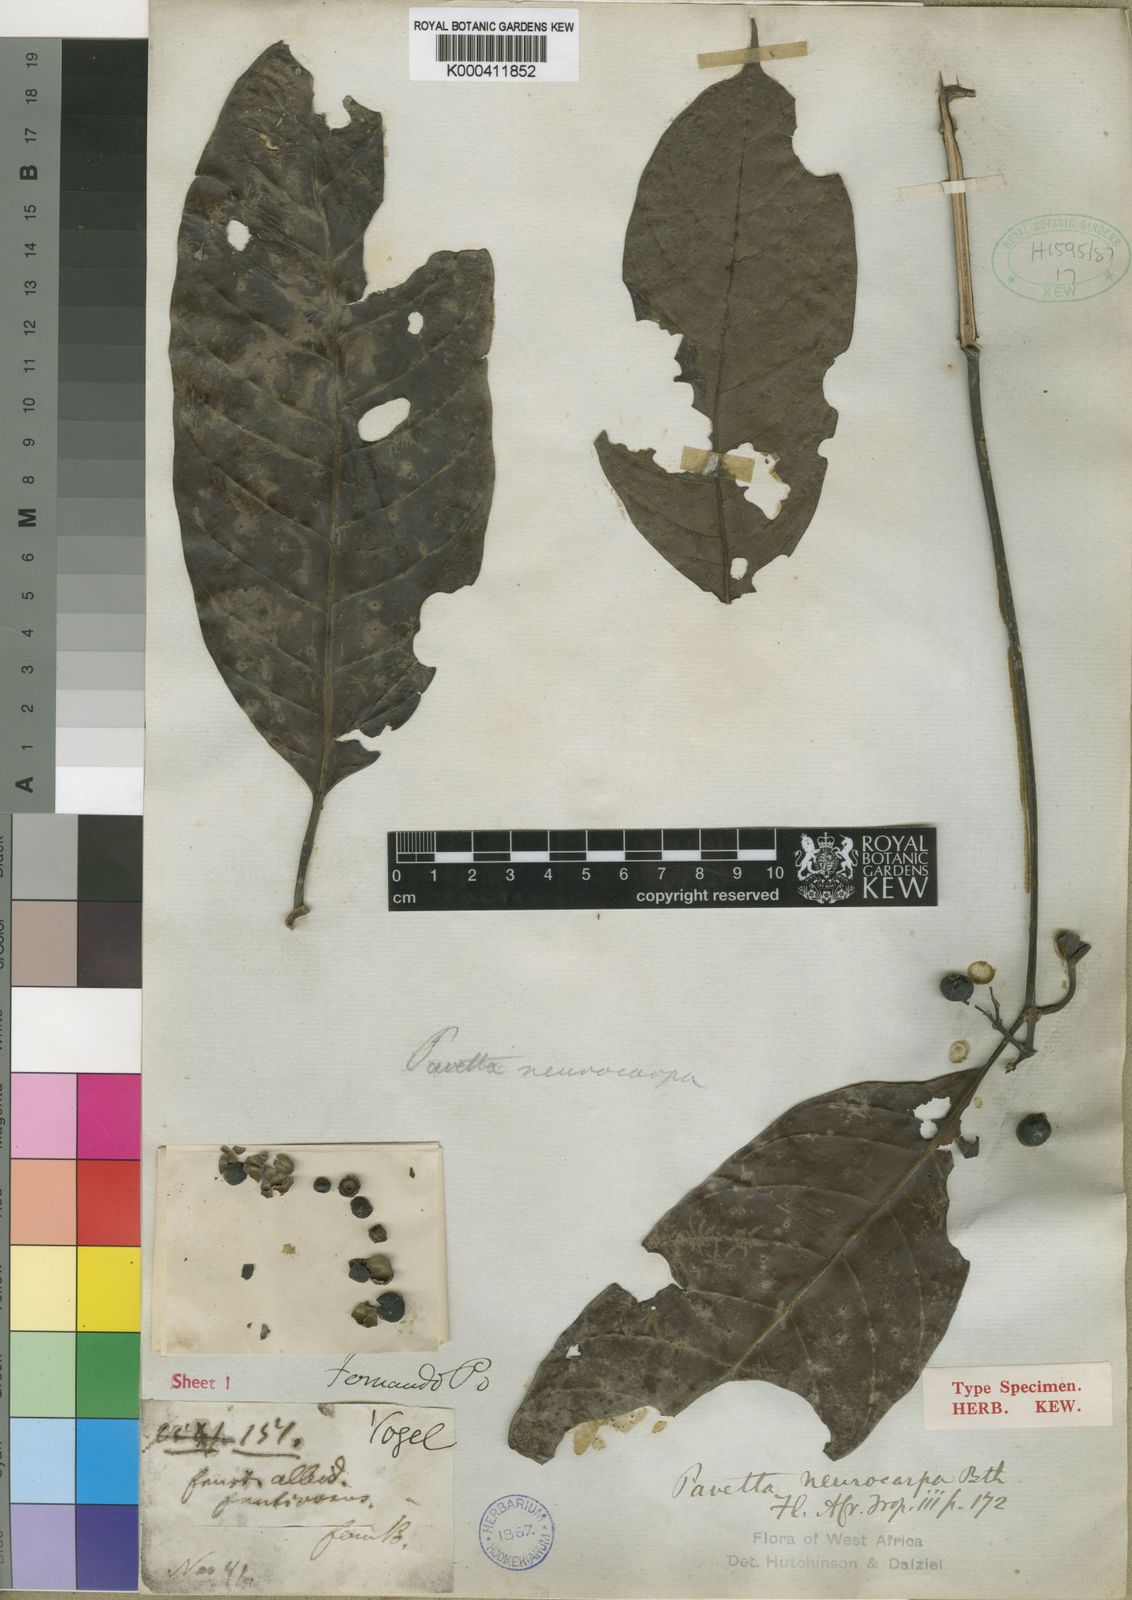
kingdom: Plantae
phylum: Tracheophyta
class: Magnoliopsida
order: Gentianales
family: Rubiaceae
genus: Pavetta
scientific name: Pavetta neurocarpa
